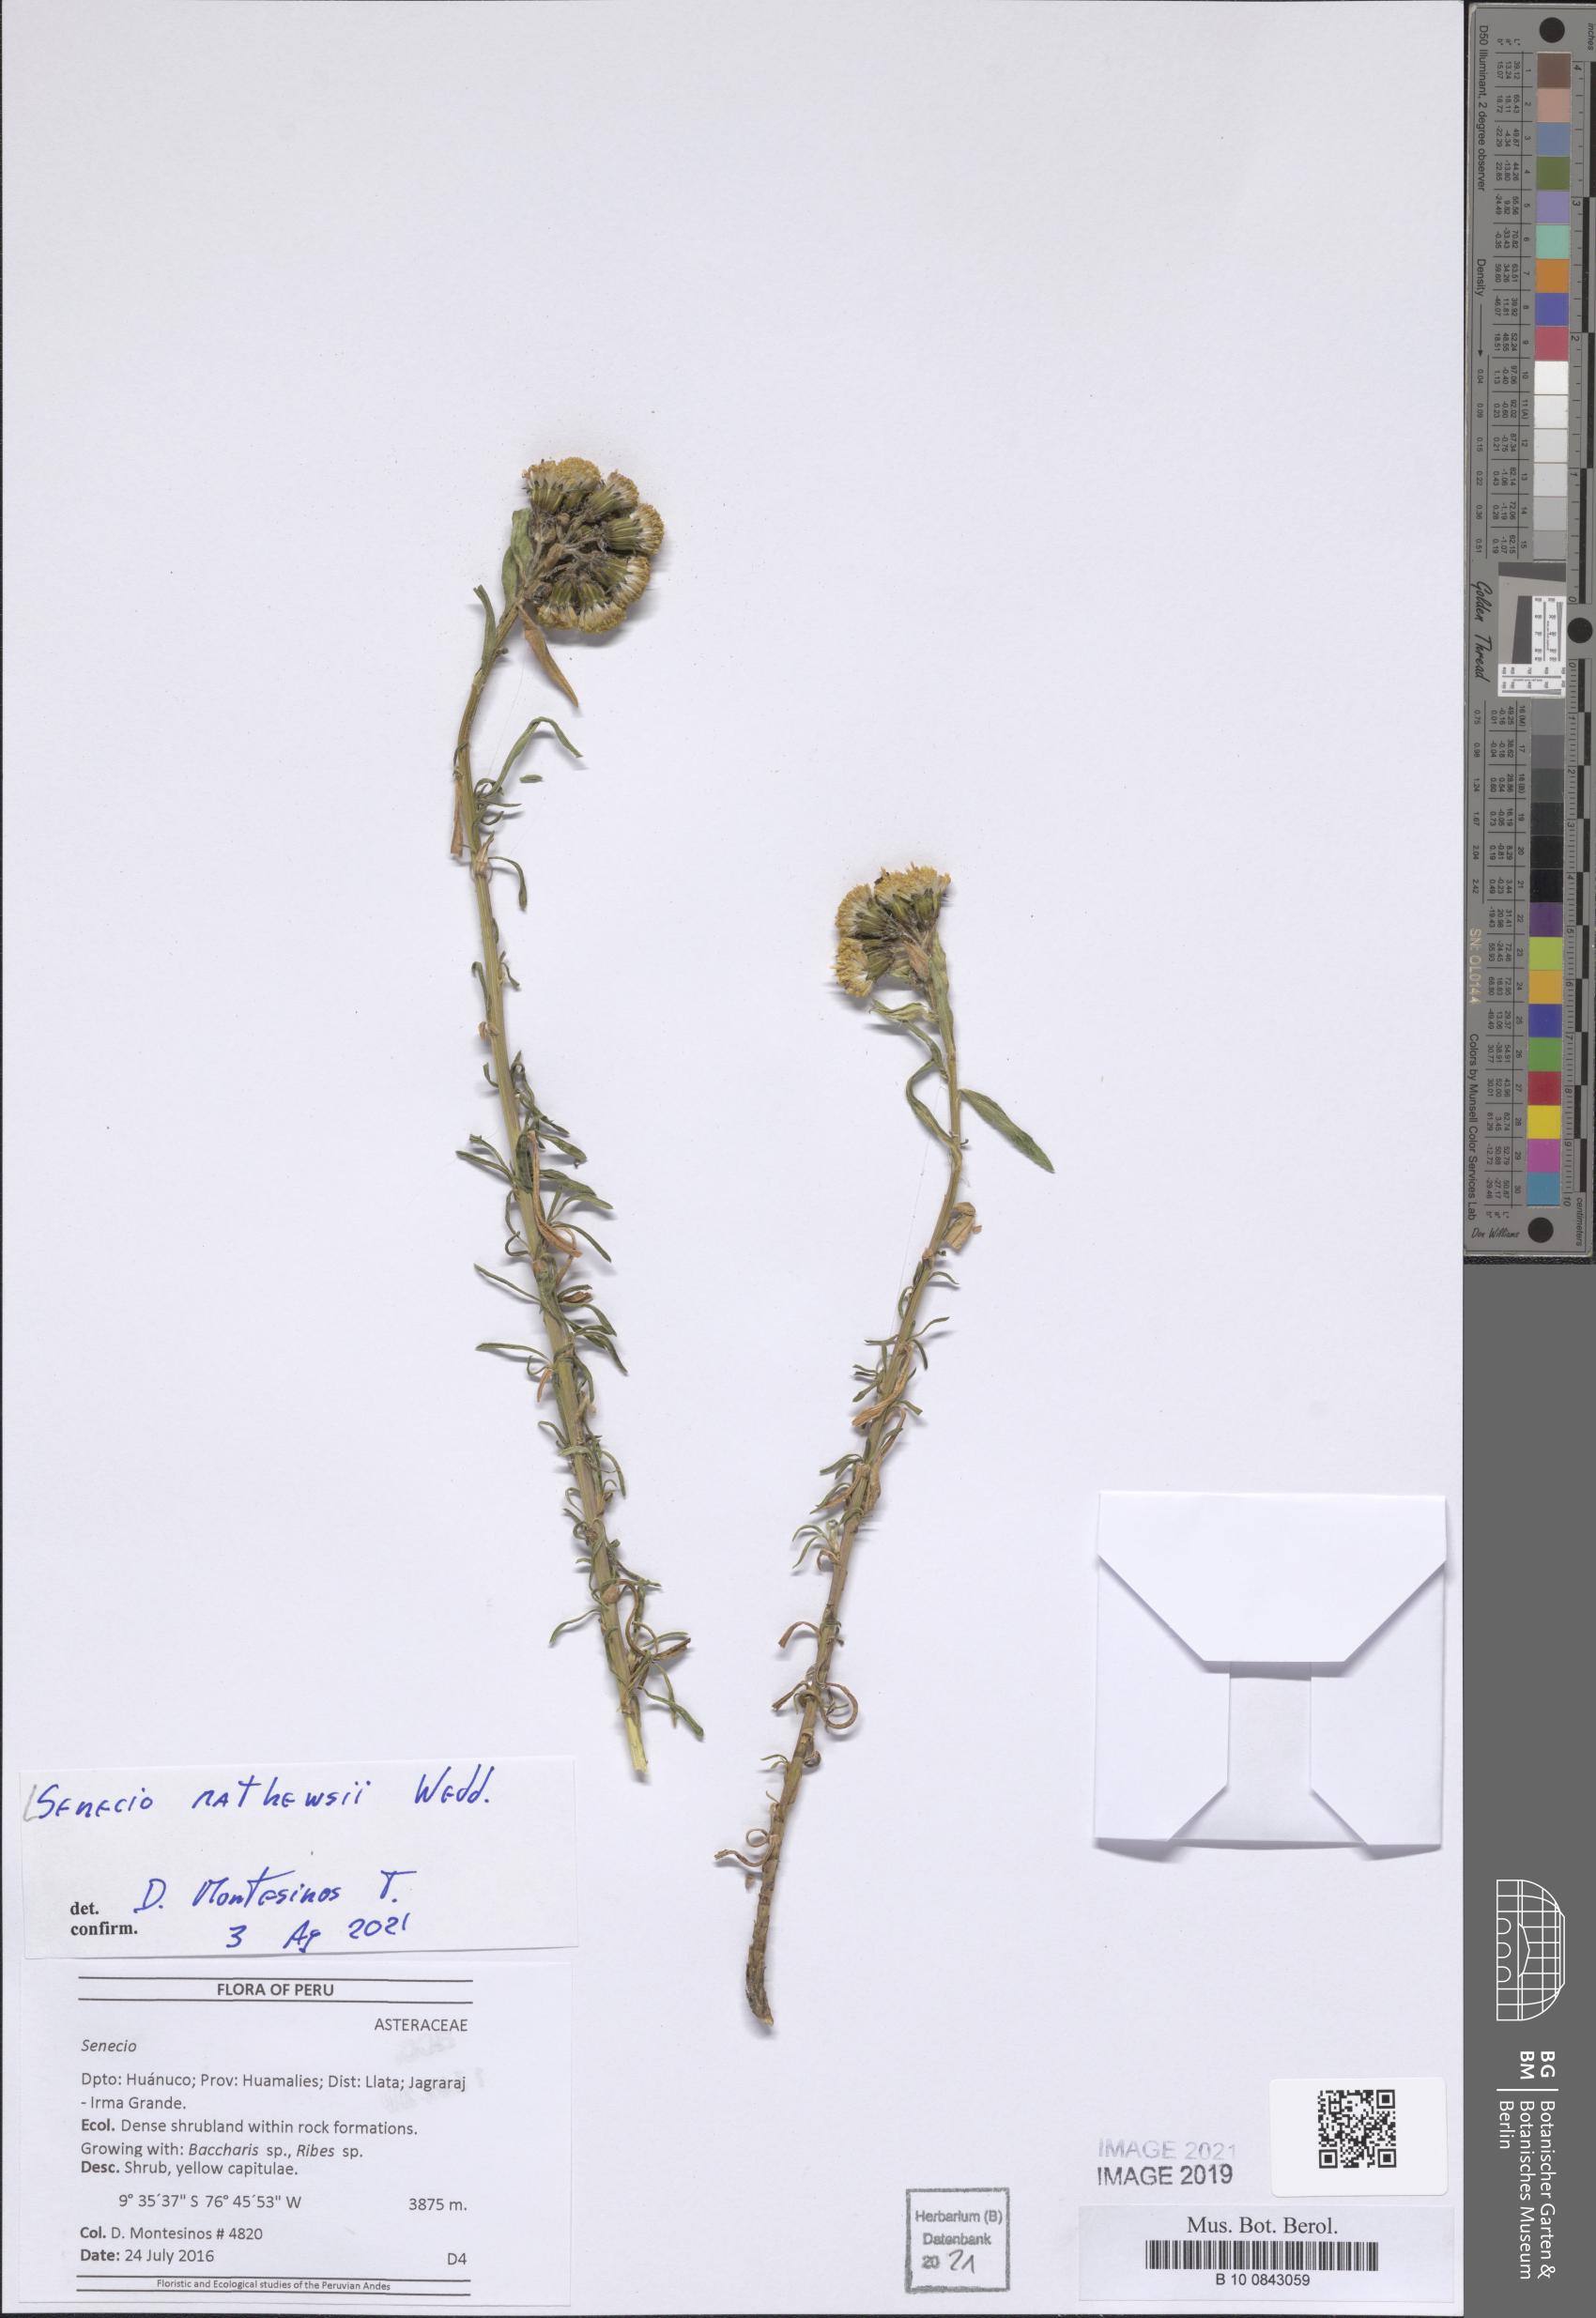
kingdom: Plantae
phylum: Tracheophyta
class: Magnoliopsida
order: Asterales
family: Asteraceae
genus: Senecio
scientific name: Senecio mathewsii
